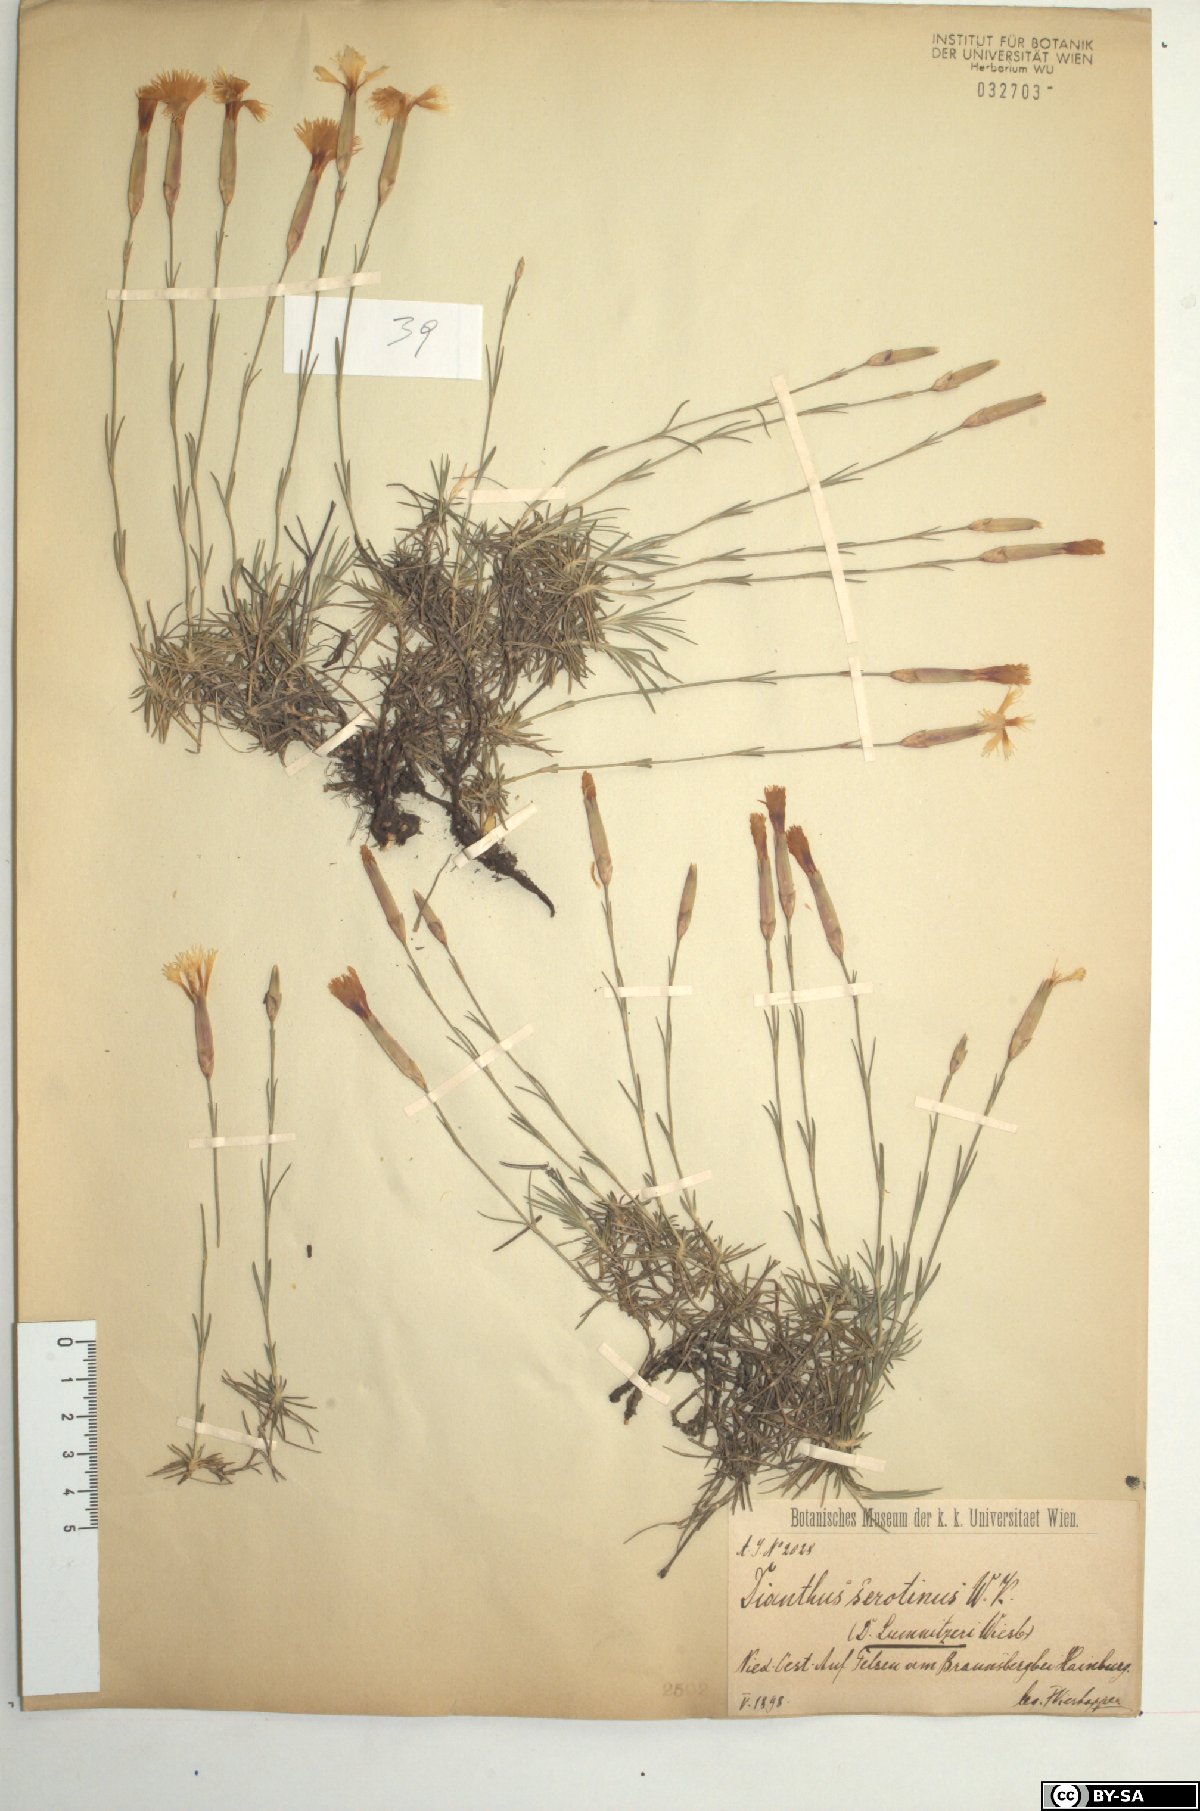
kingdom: Plantae
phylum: Tracheophyta
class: Magnoliopsida
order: Caryophyllales
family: Caryophyllaceae
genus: Dianthus
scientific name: Dianthus praecox
